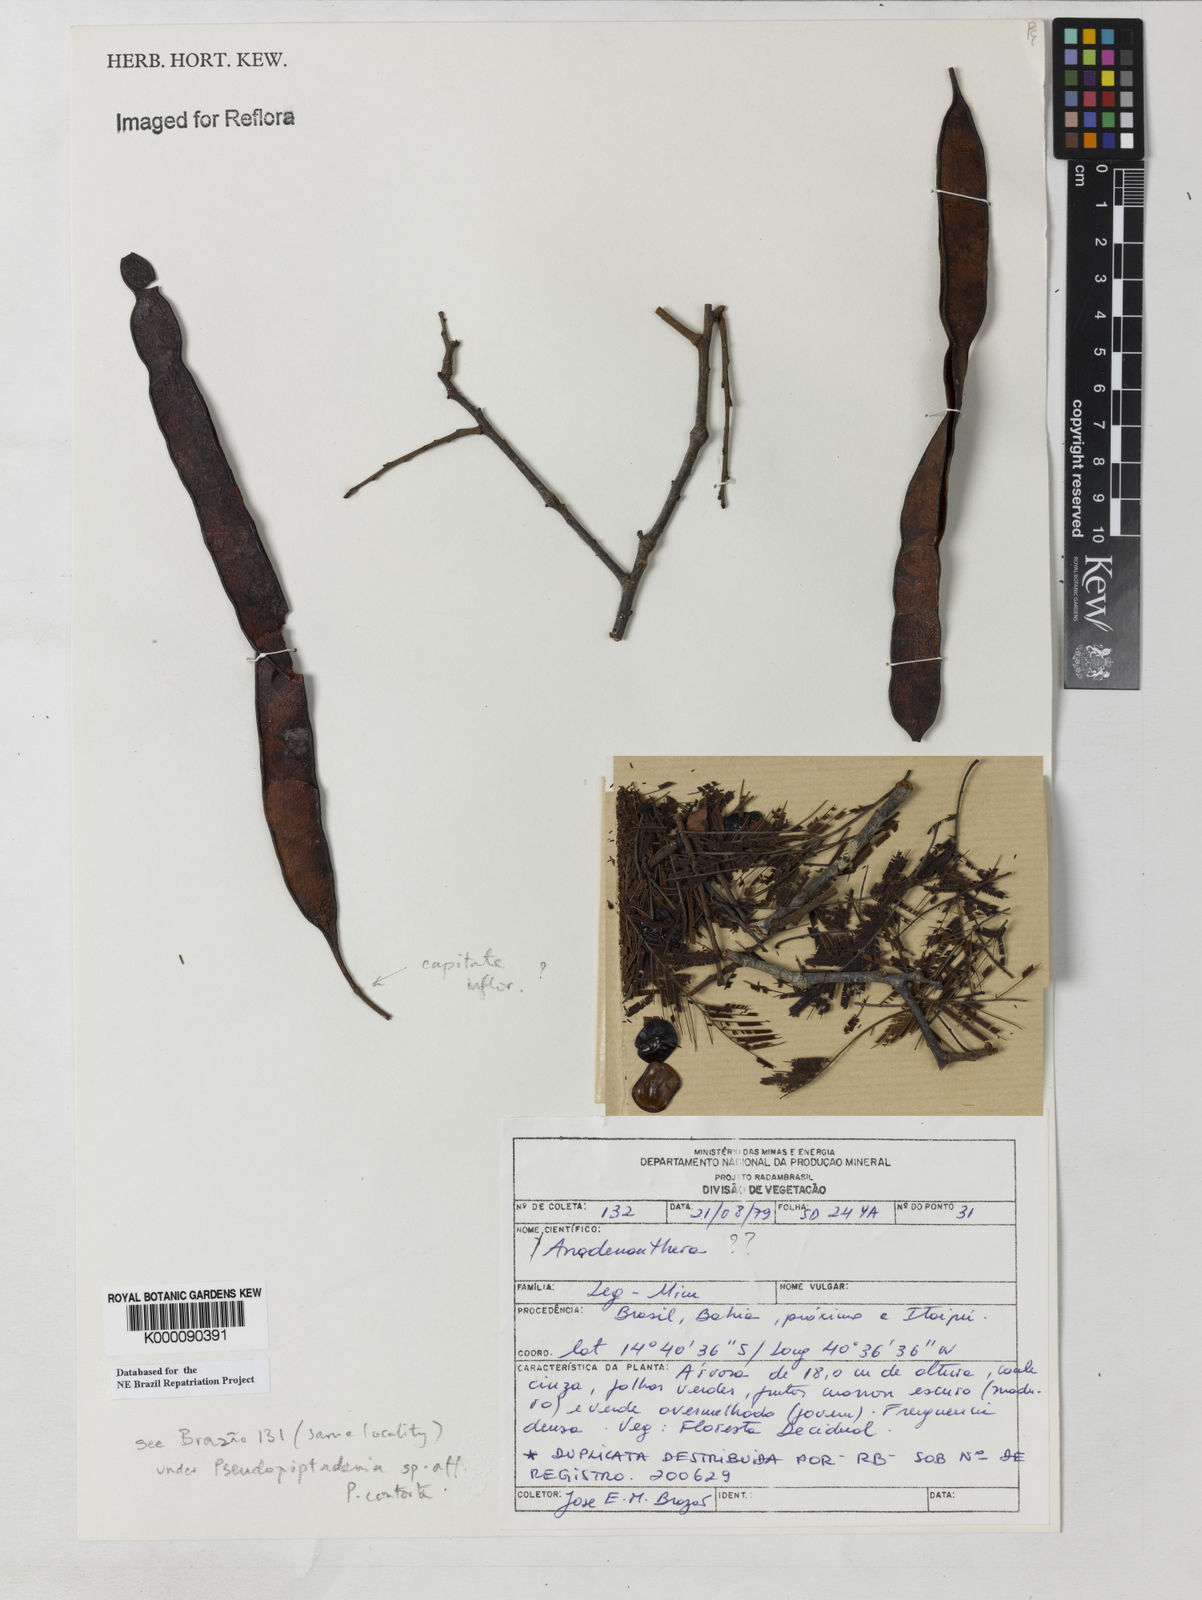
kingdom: Plantae
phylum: Tracheophyta
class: Magnoliopsida
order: Fabales
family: Fabaceae
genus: Anadenanthera
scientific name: Anadenanthera
